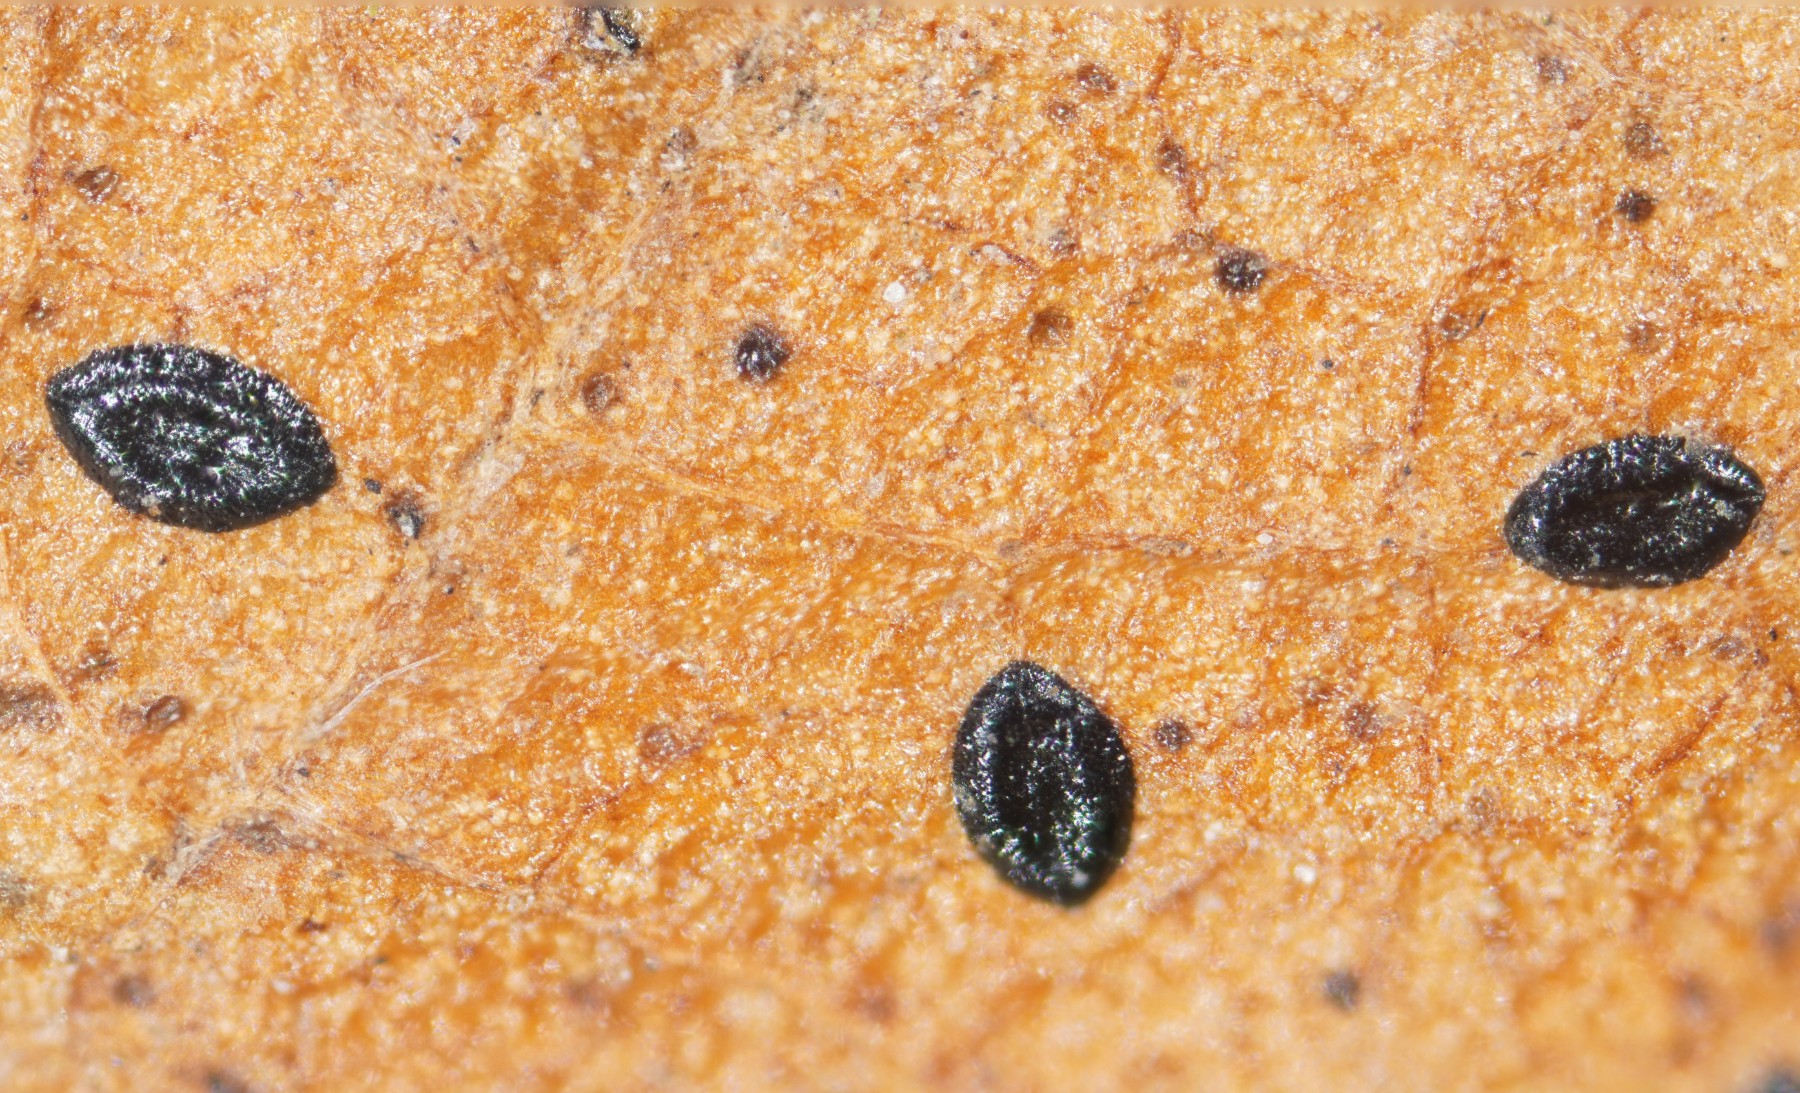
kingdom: Fungi
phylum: Ascomycota
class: Leotiomycetes
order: Rhytismatales
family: Rhytismataceae
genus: Lophodermium
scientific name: Lophodermium foliicola
